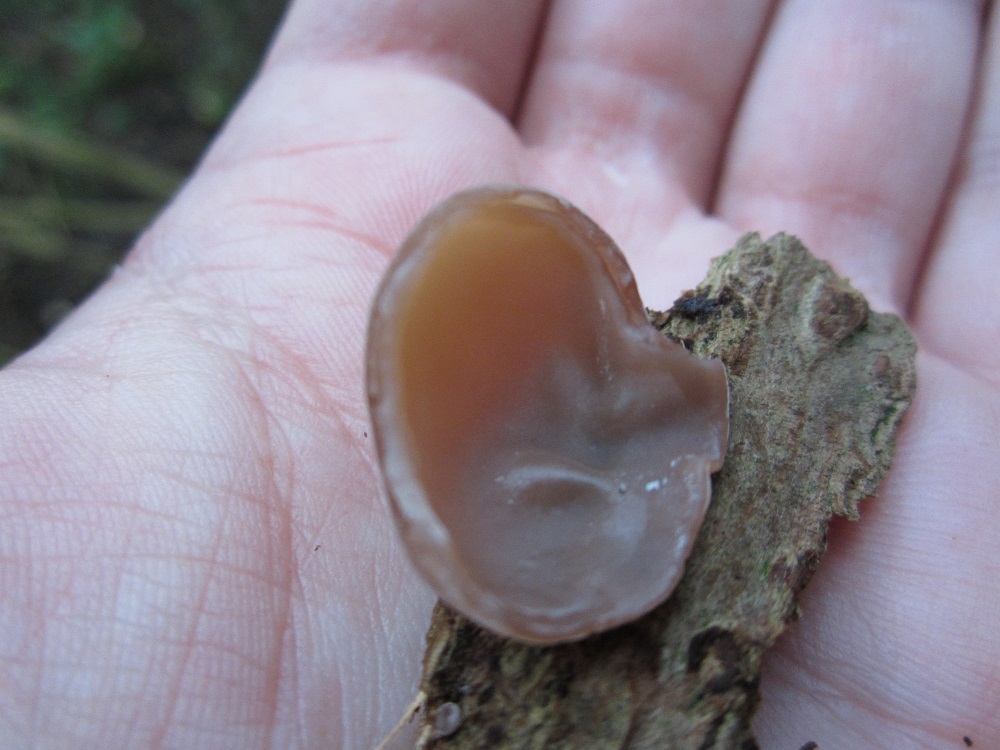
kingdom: Fungi
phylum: Basidiomycota
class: Agaricomycetes
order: Auriculariales
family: Auriculariaceae
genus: Auricularia
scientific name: Auricularia auricula-judae
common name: almindelig judasøre
